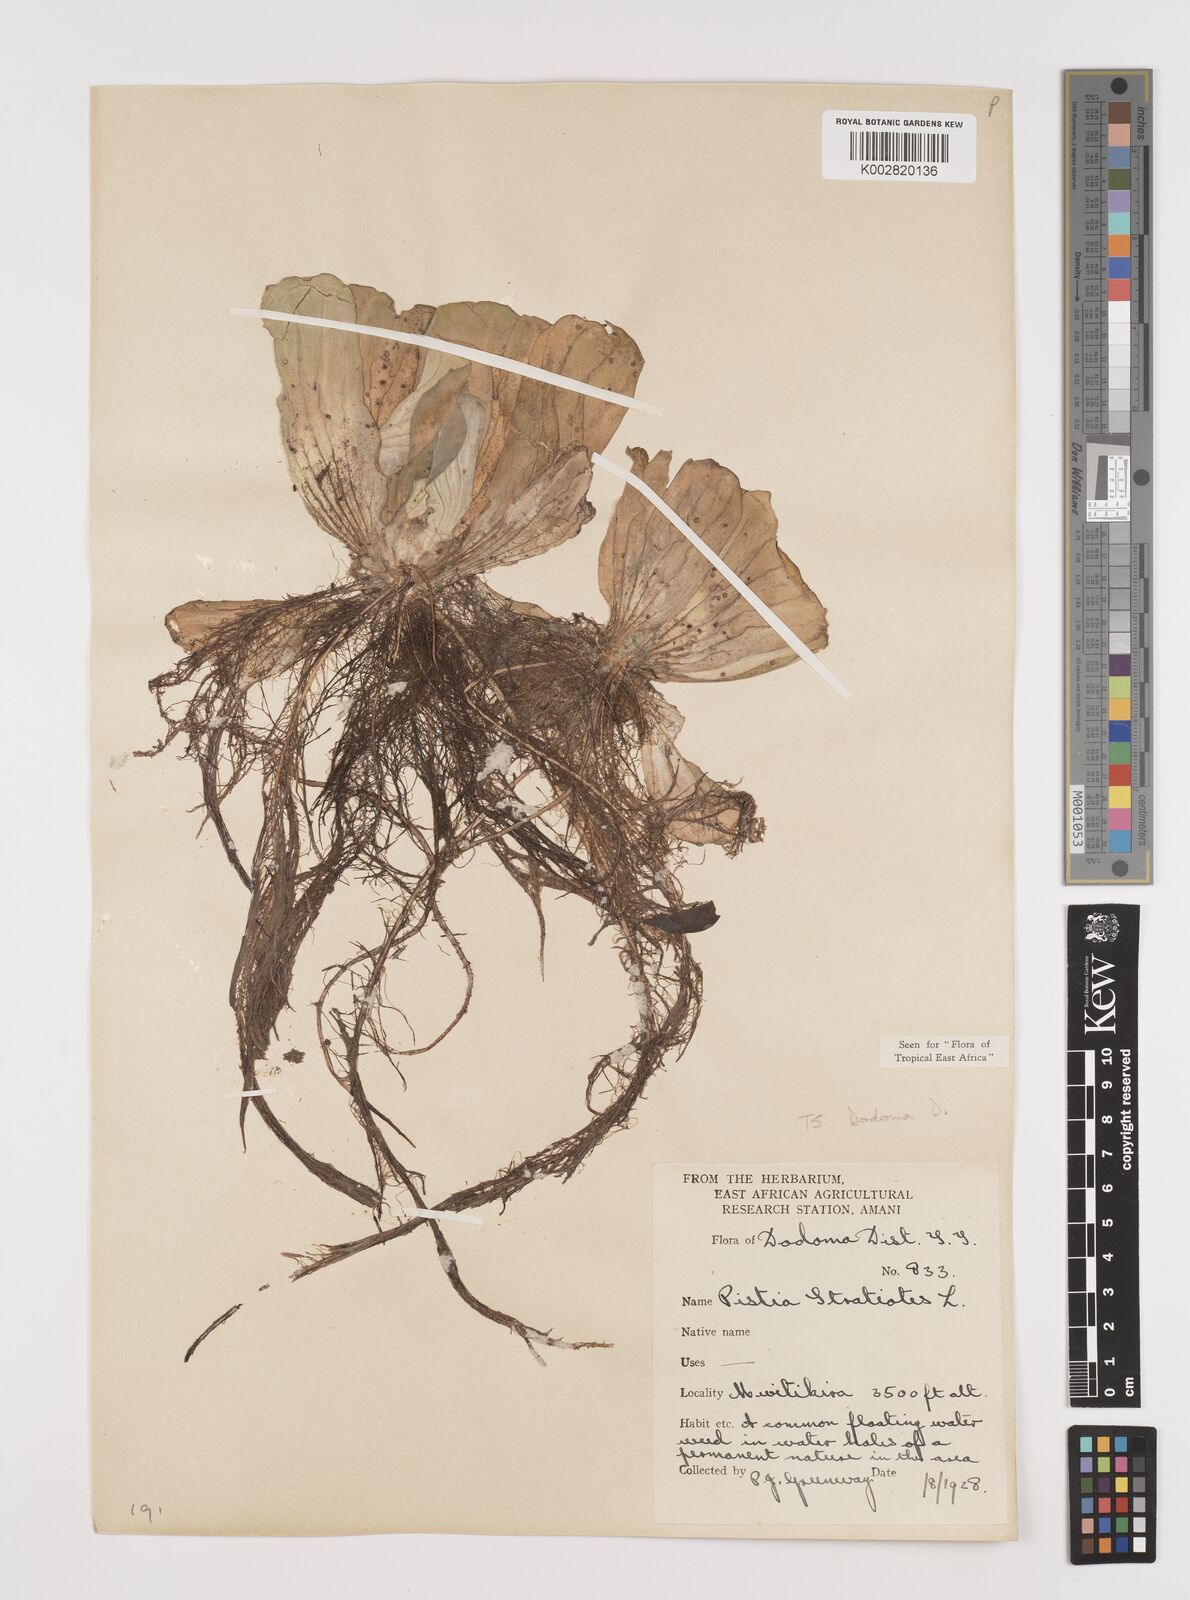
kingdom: Plantae
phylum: Tracheophyta
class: Liliopsida
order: Alismatales
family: Araceae
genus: Pistia
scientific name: Pistia stratiotes
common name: Water lettuce
